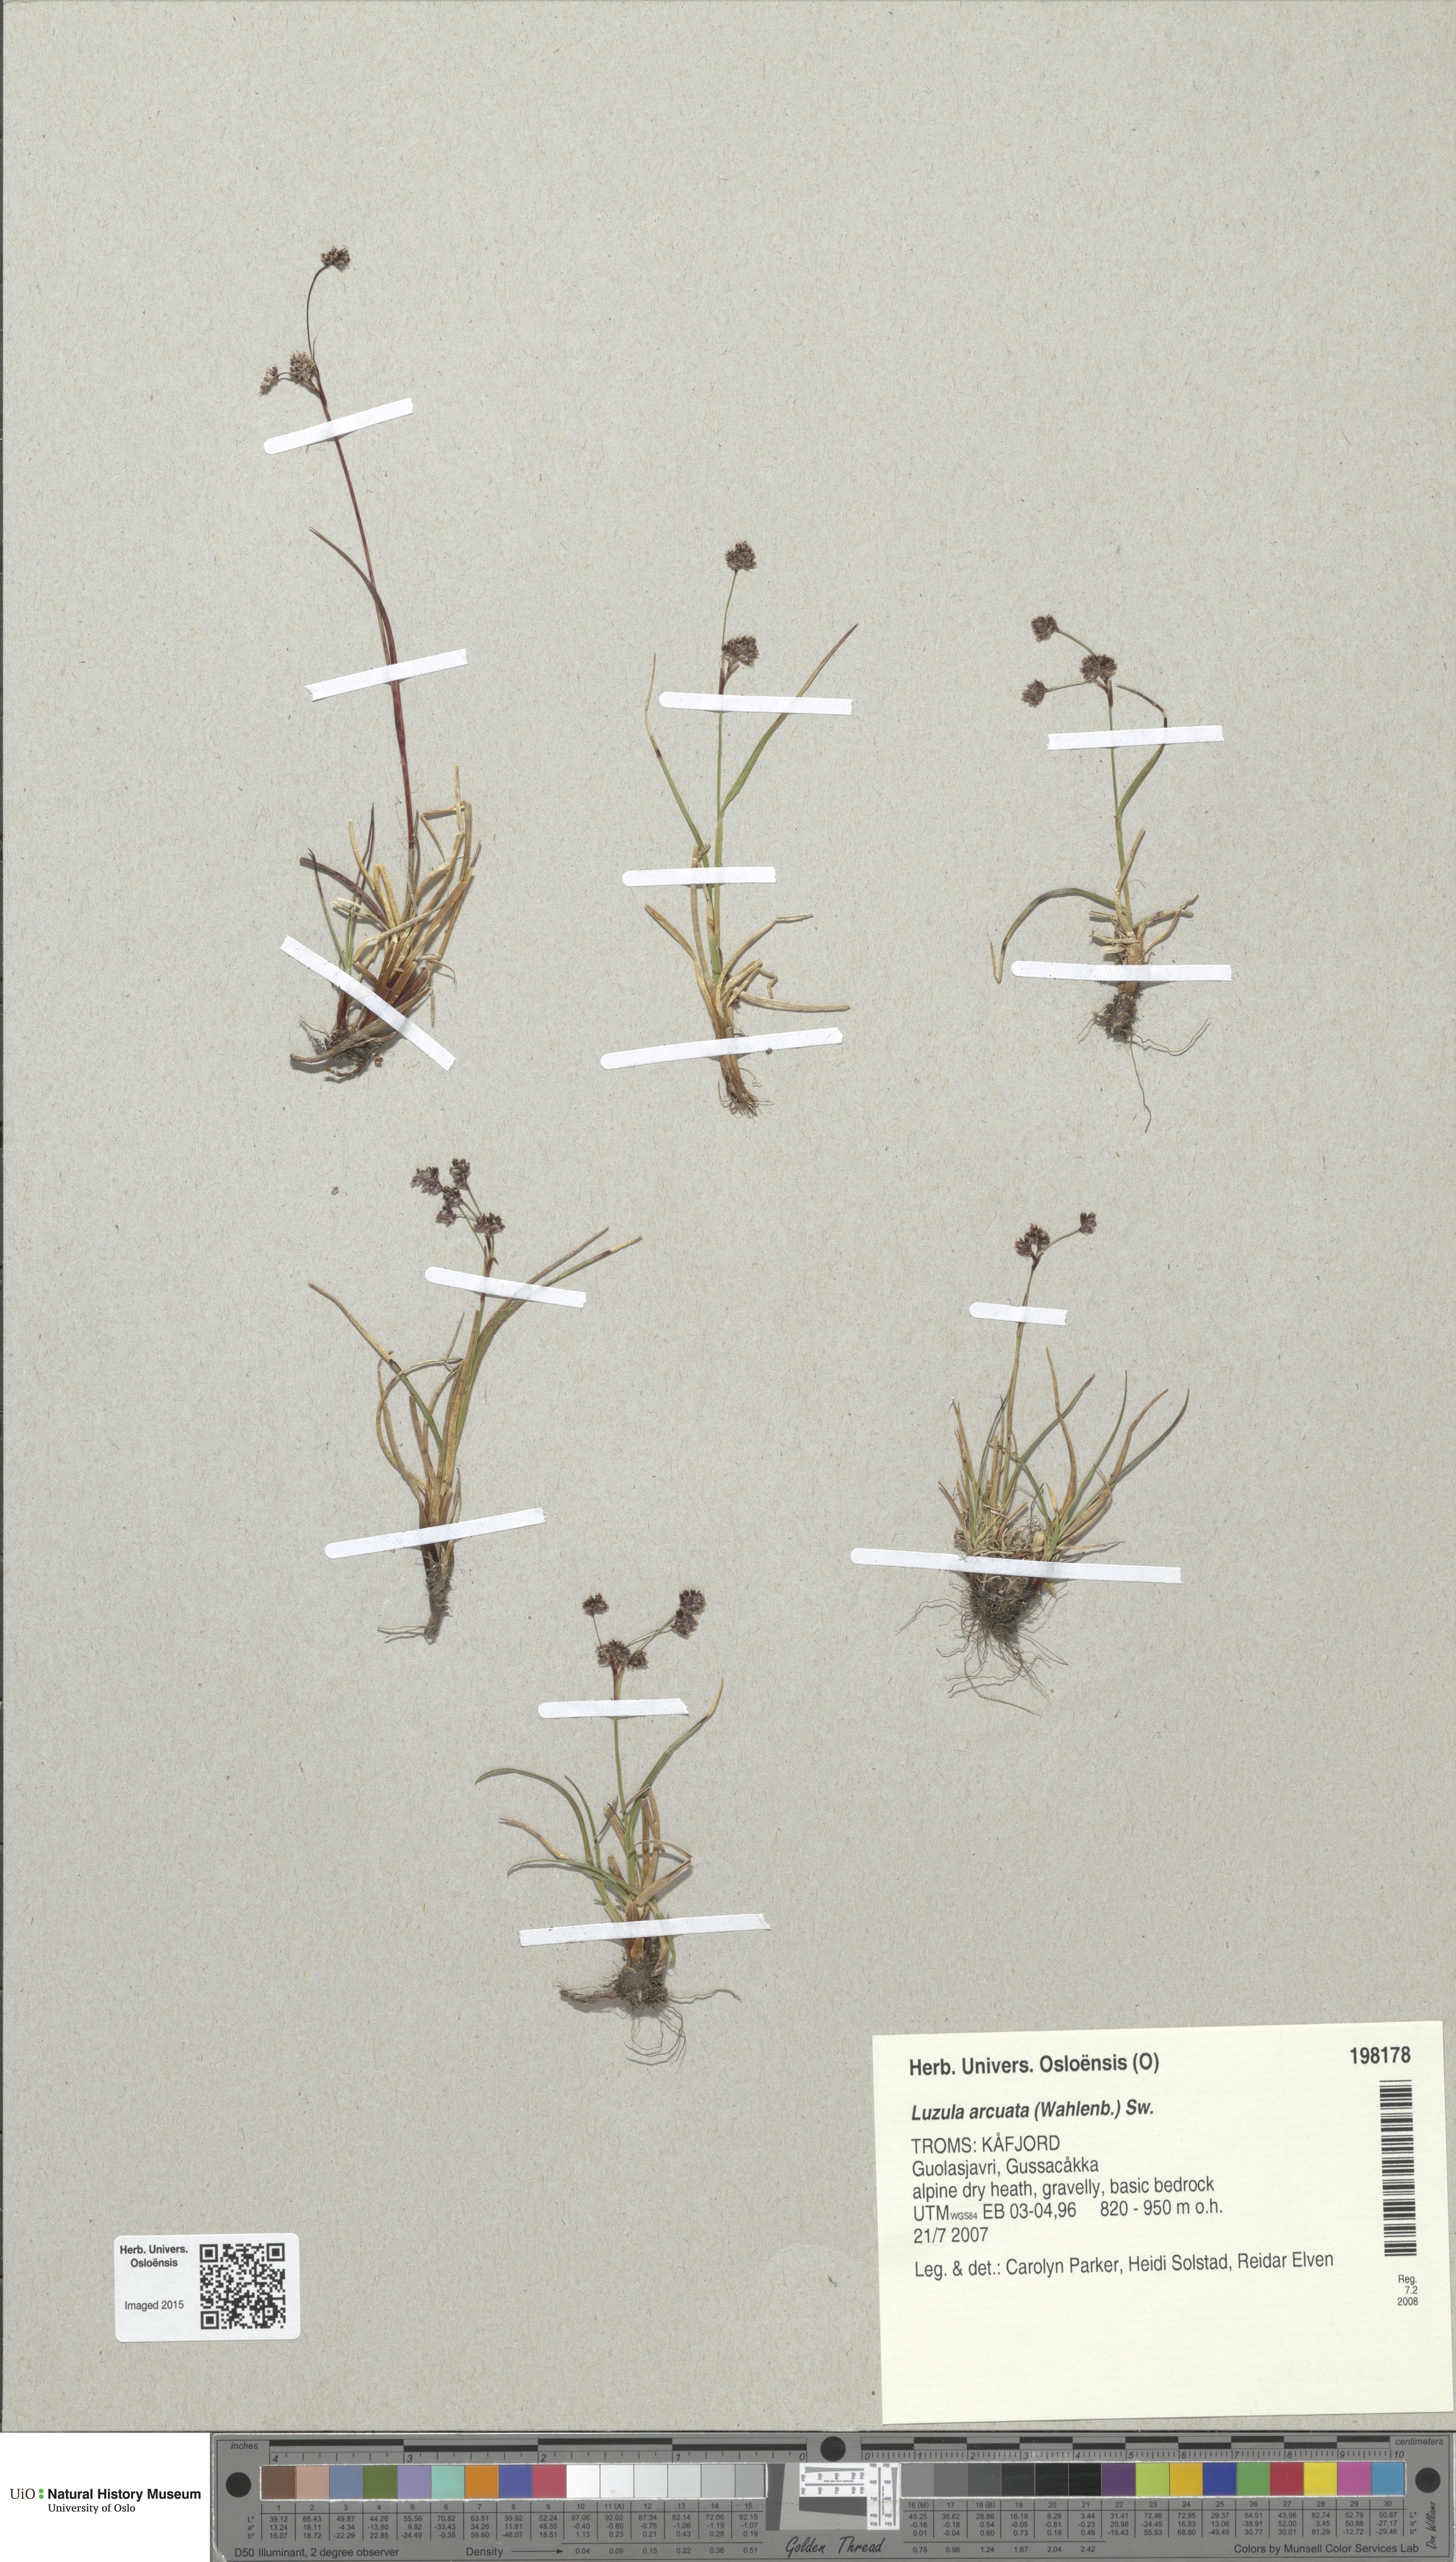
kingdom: Plantae
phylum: Tracheophyta
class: Liliopsida
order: Poales
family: Juncaceae
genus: Luzula
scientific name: Luzula arcuata
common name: Curved wood-rush
